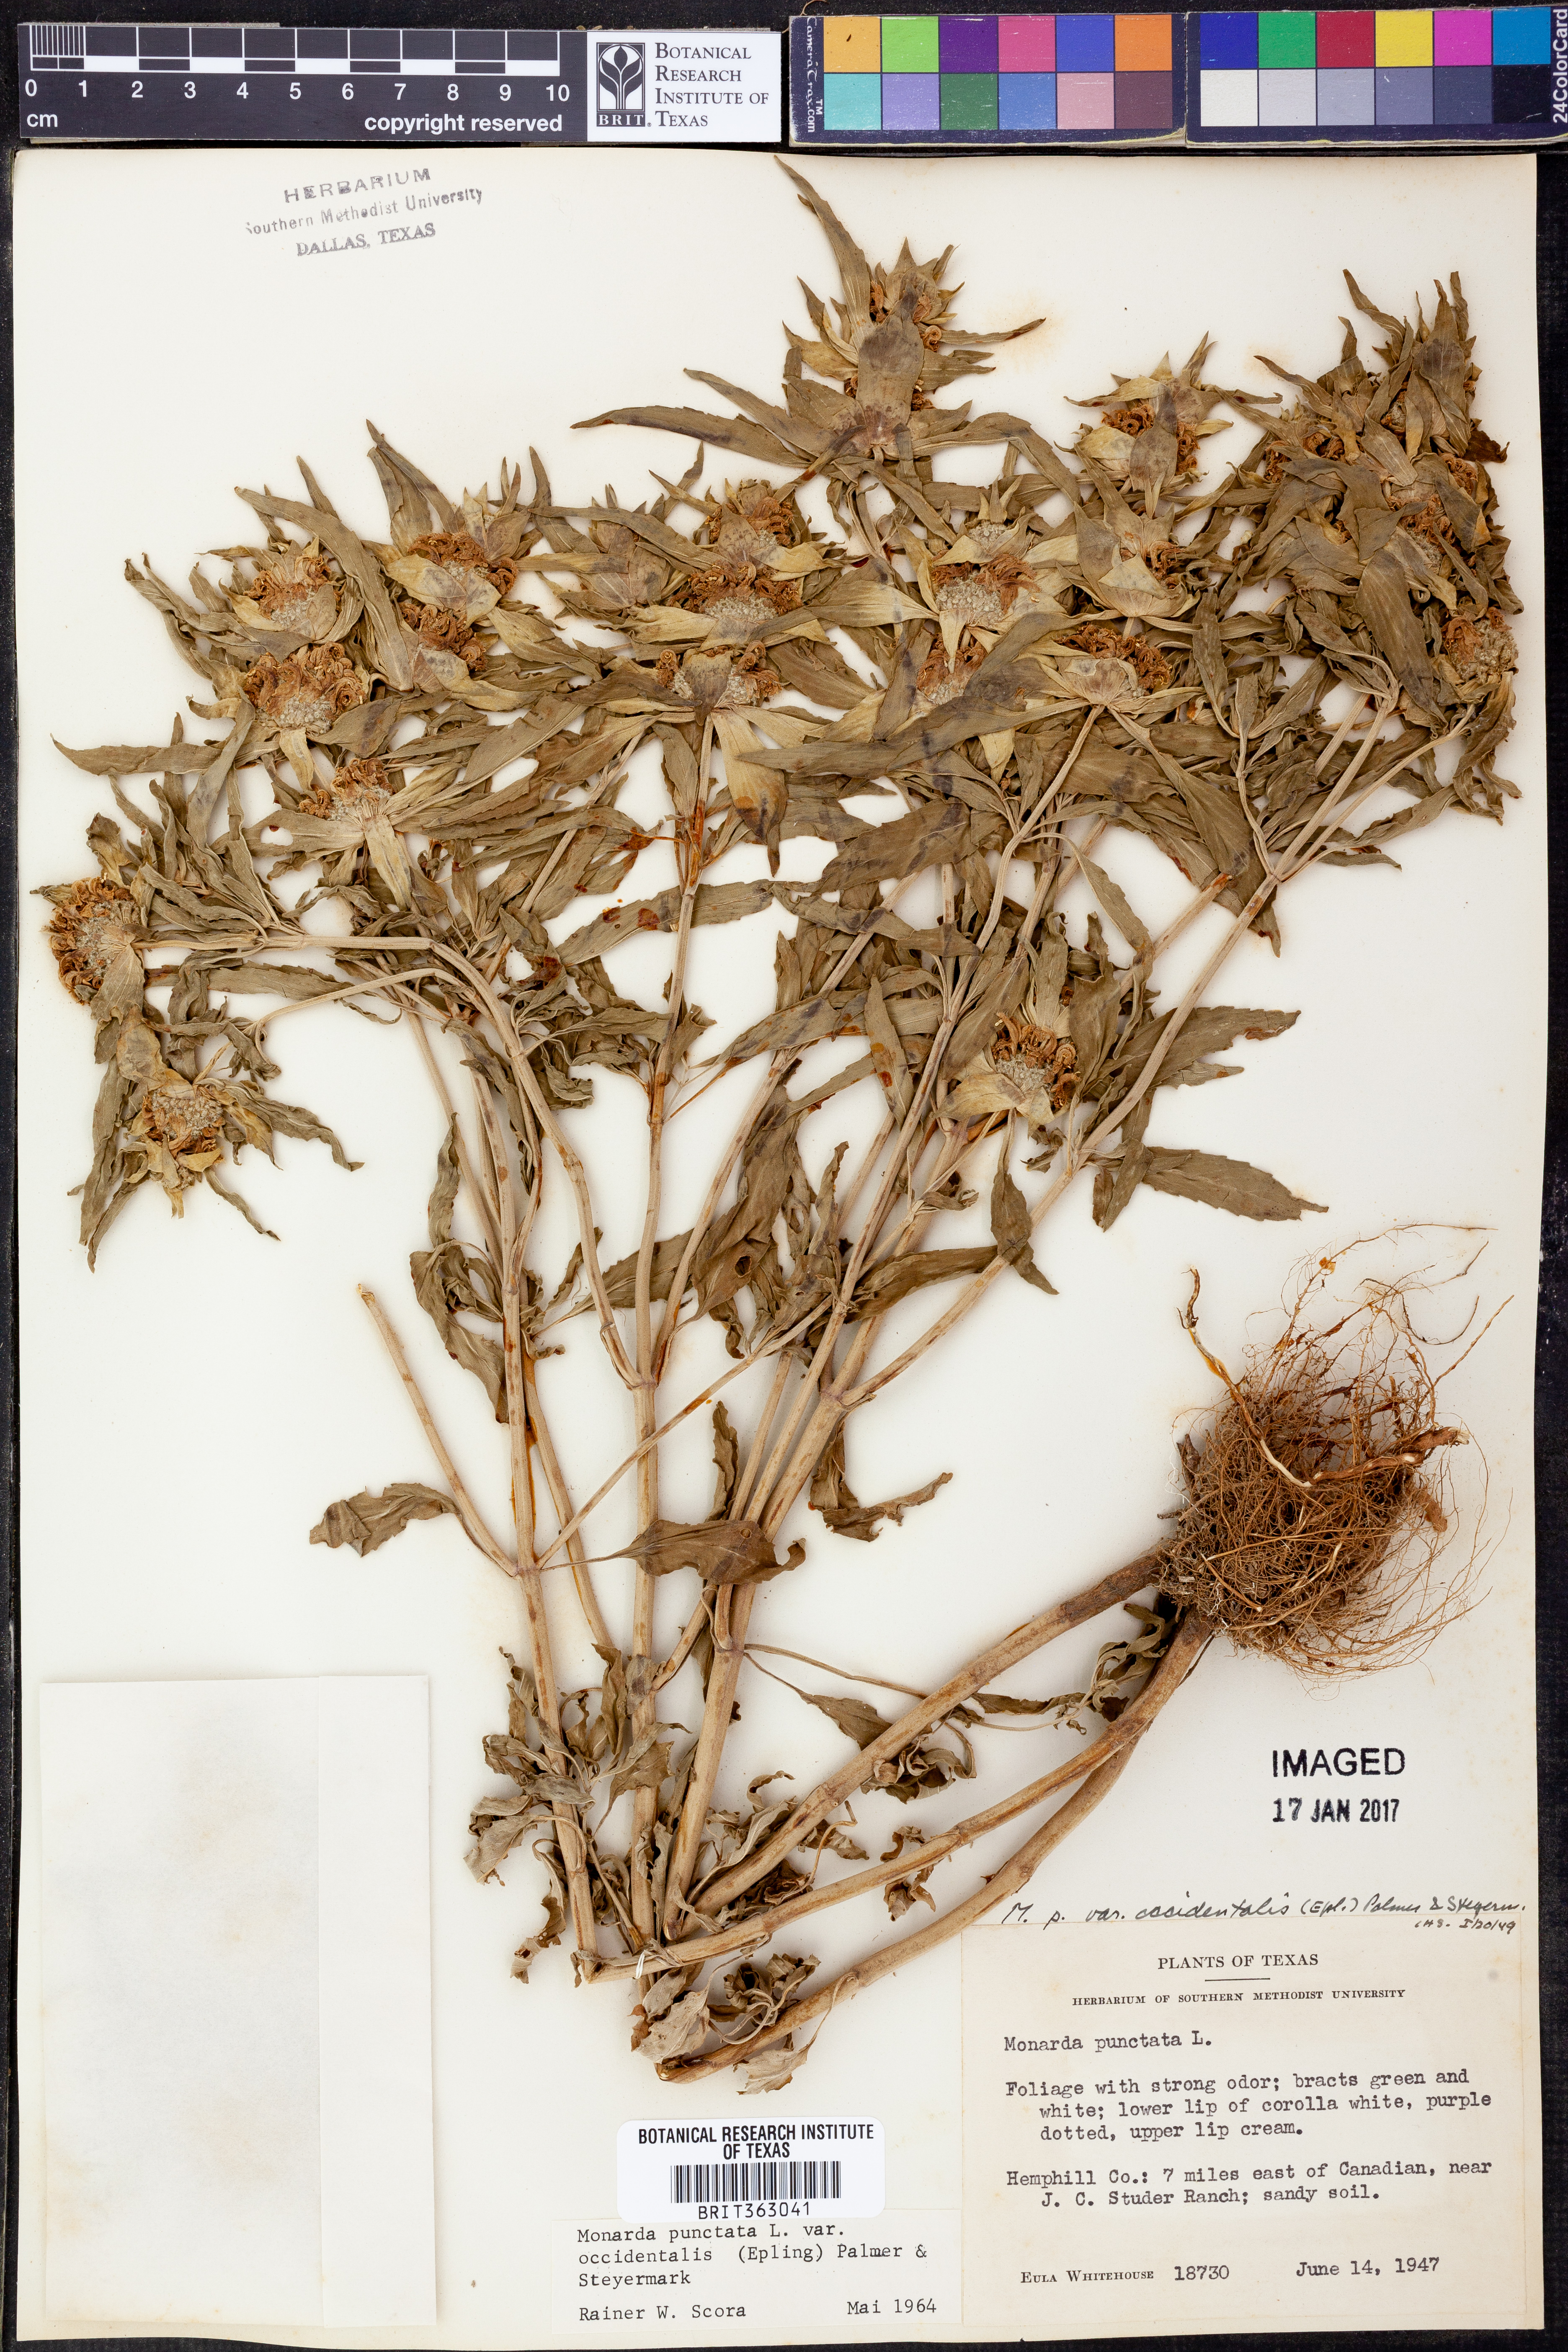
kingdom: Plantae
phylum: Tracheophyta
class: Magnoliopsida
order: Lamiales
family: Lamiaceae
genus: Monarda
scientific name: Monarda punctata
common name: Dotted monarda
